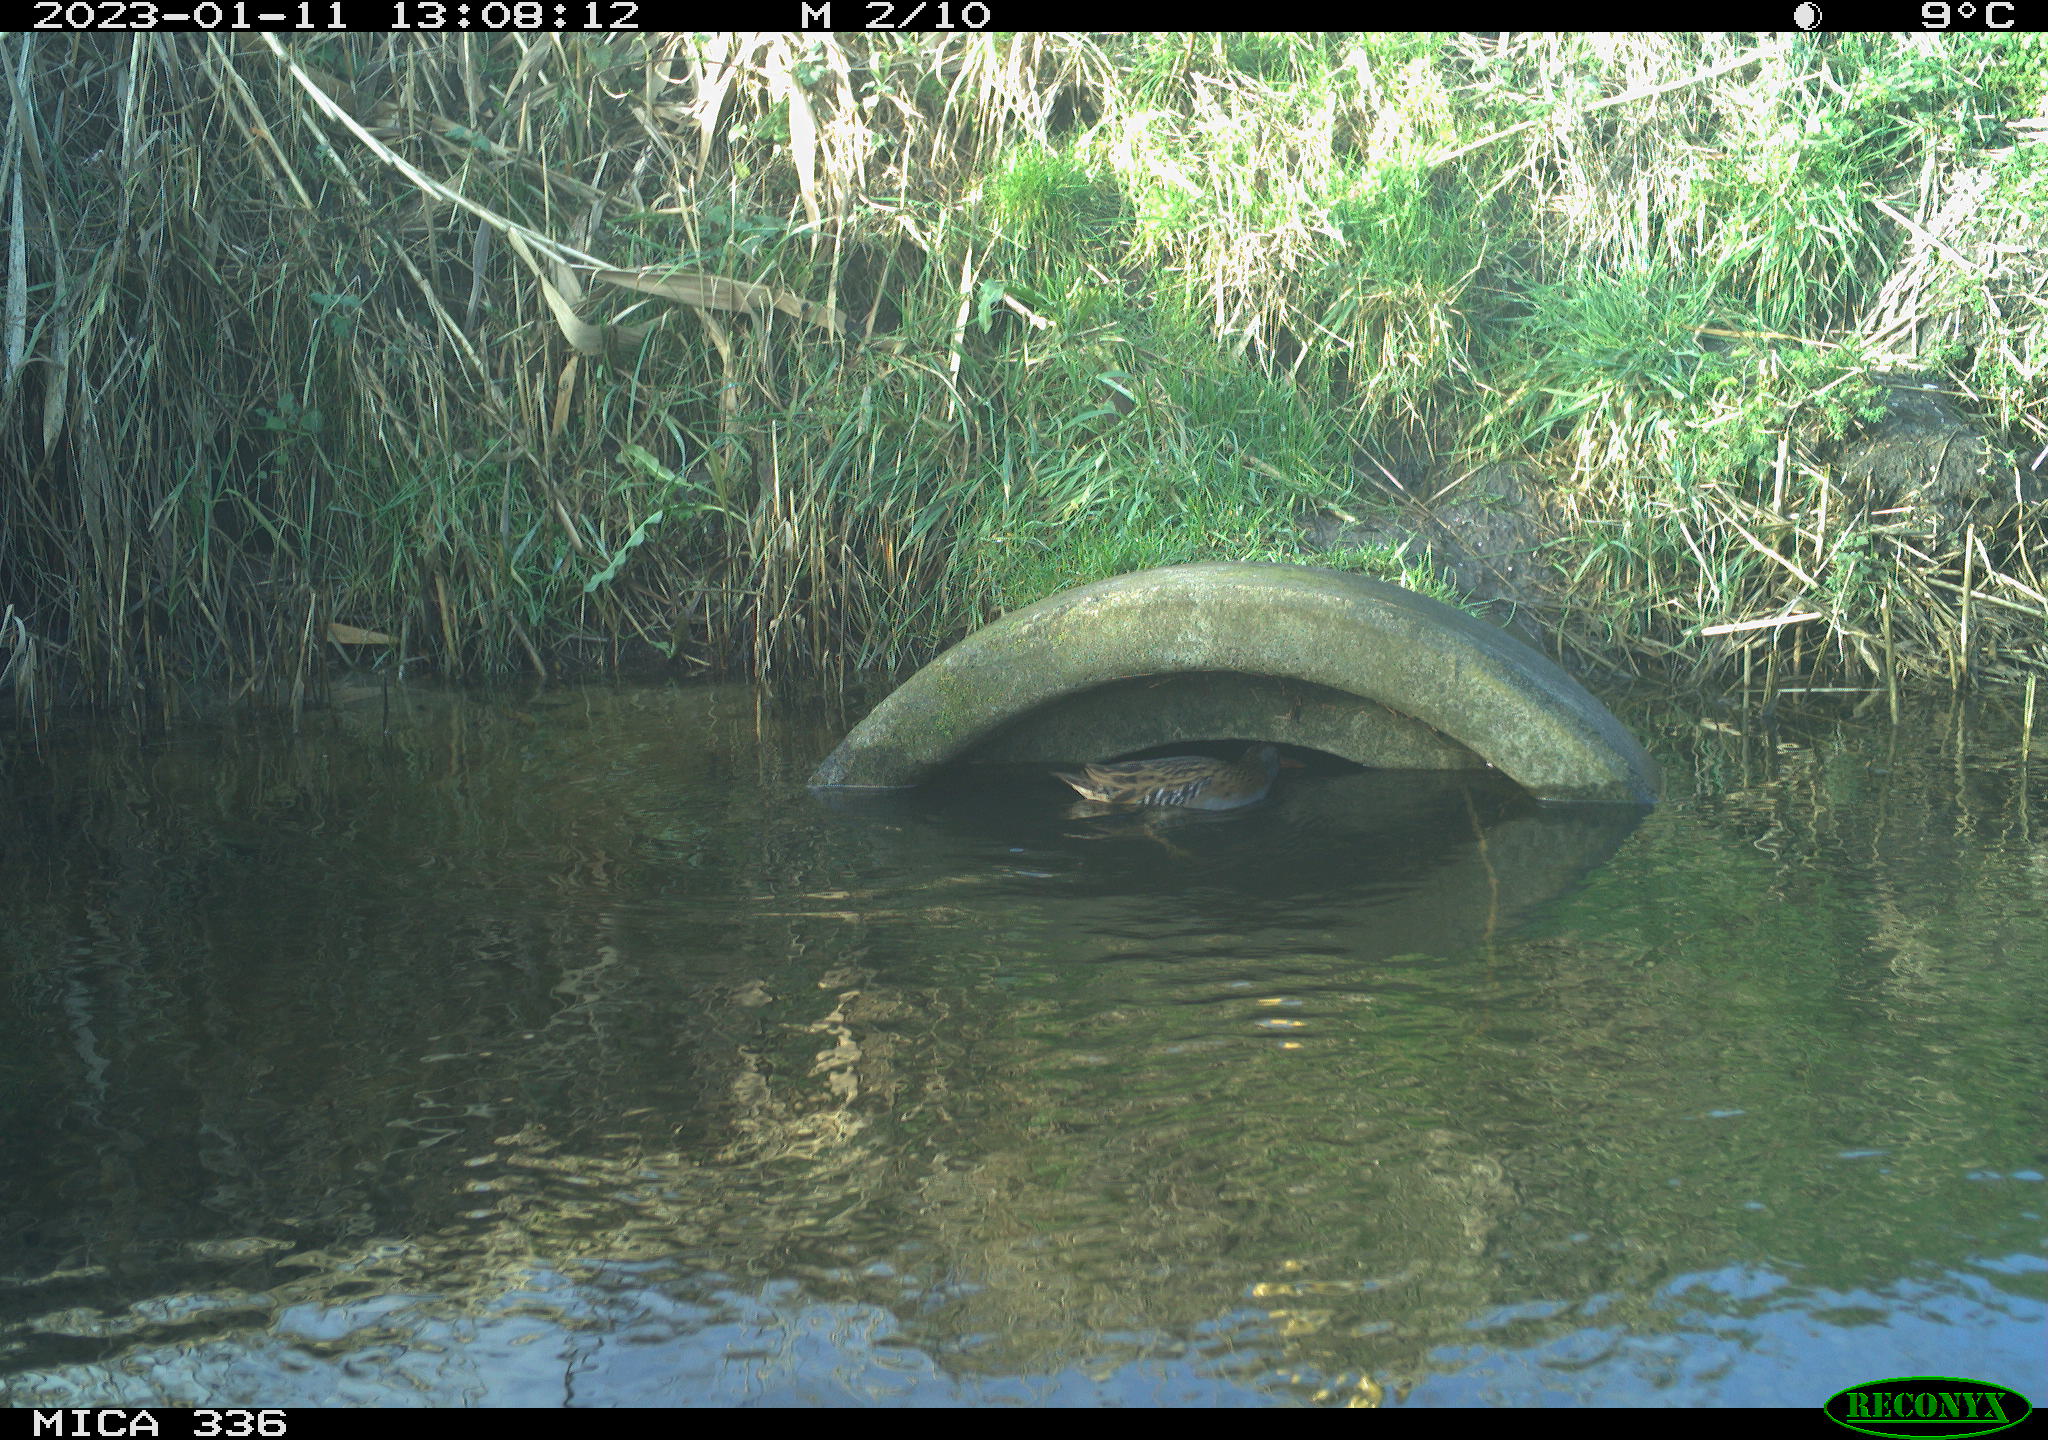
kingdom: Animalia
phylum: Chordata
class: Aves
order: Gruiformes
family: Rallidae
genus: Rallus
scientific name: Rallus aquaticus
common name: Water rail
